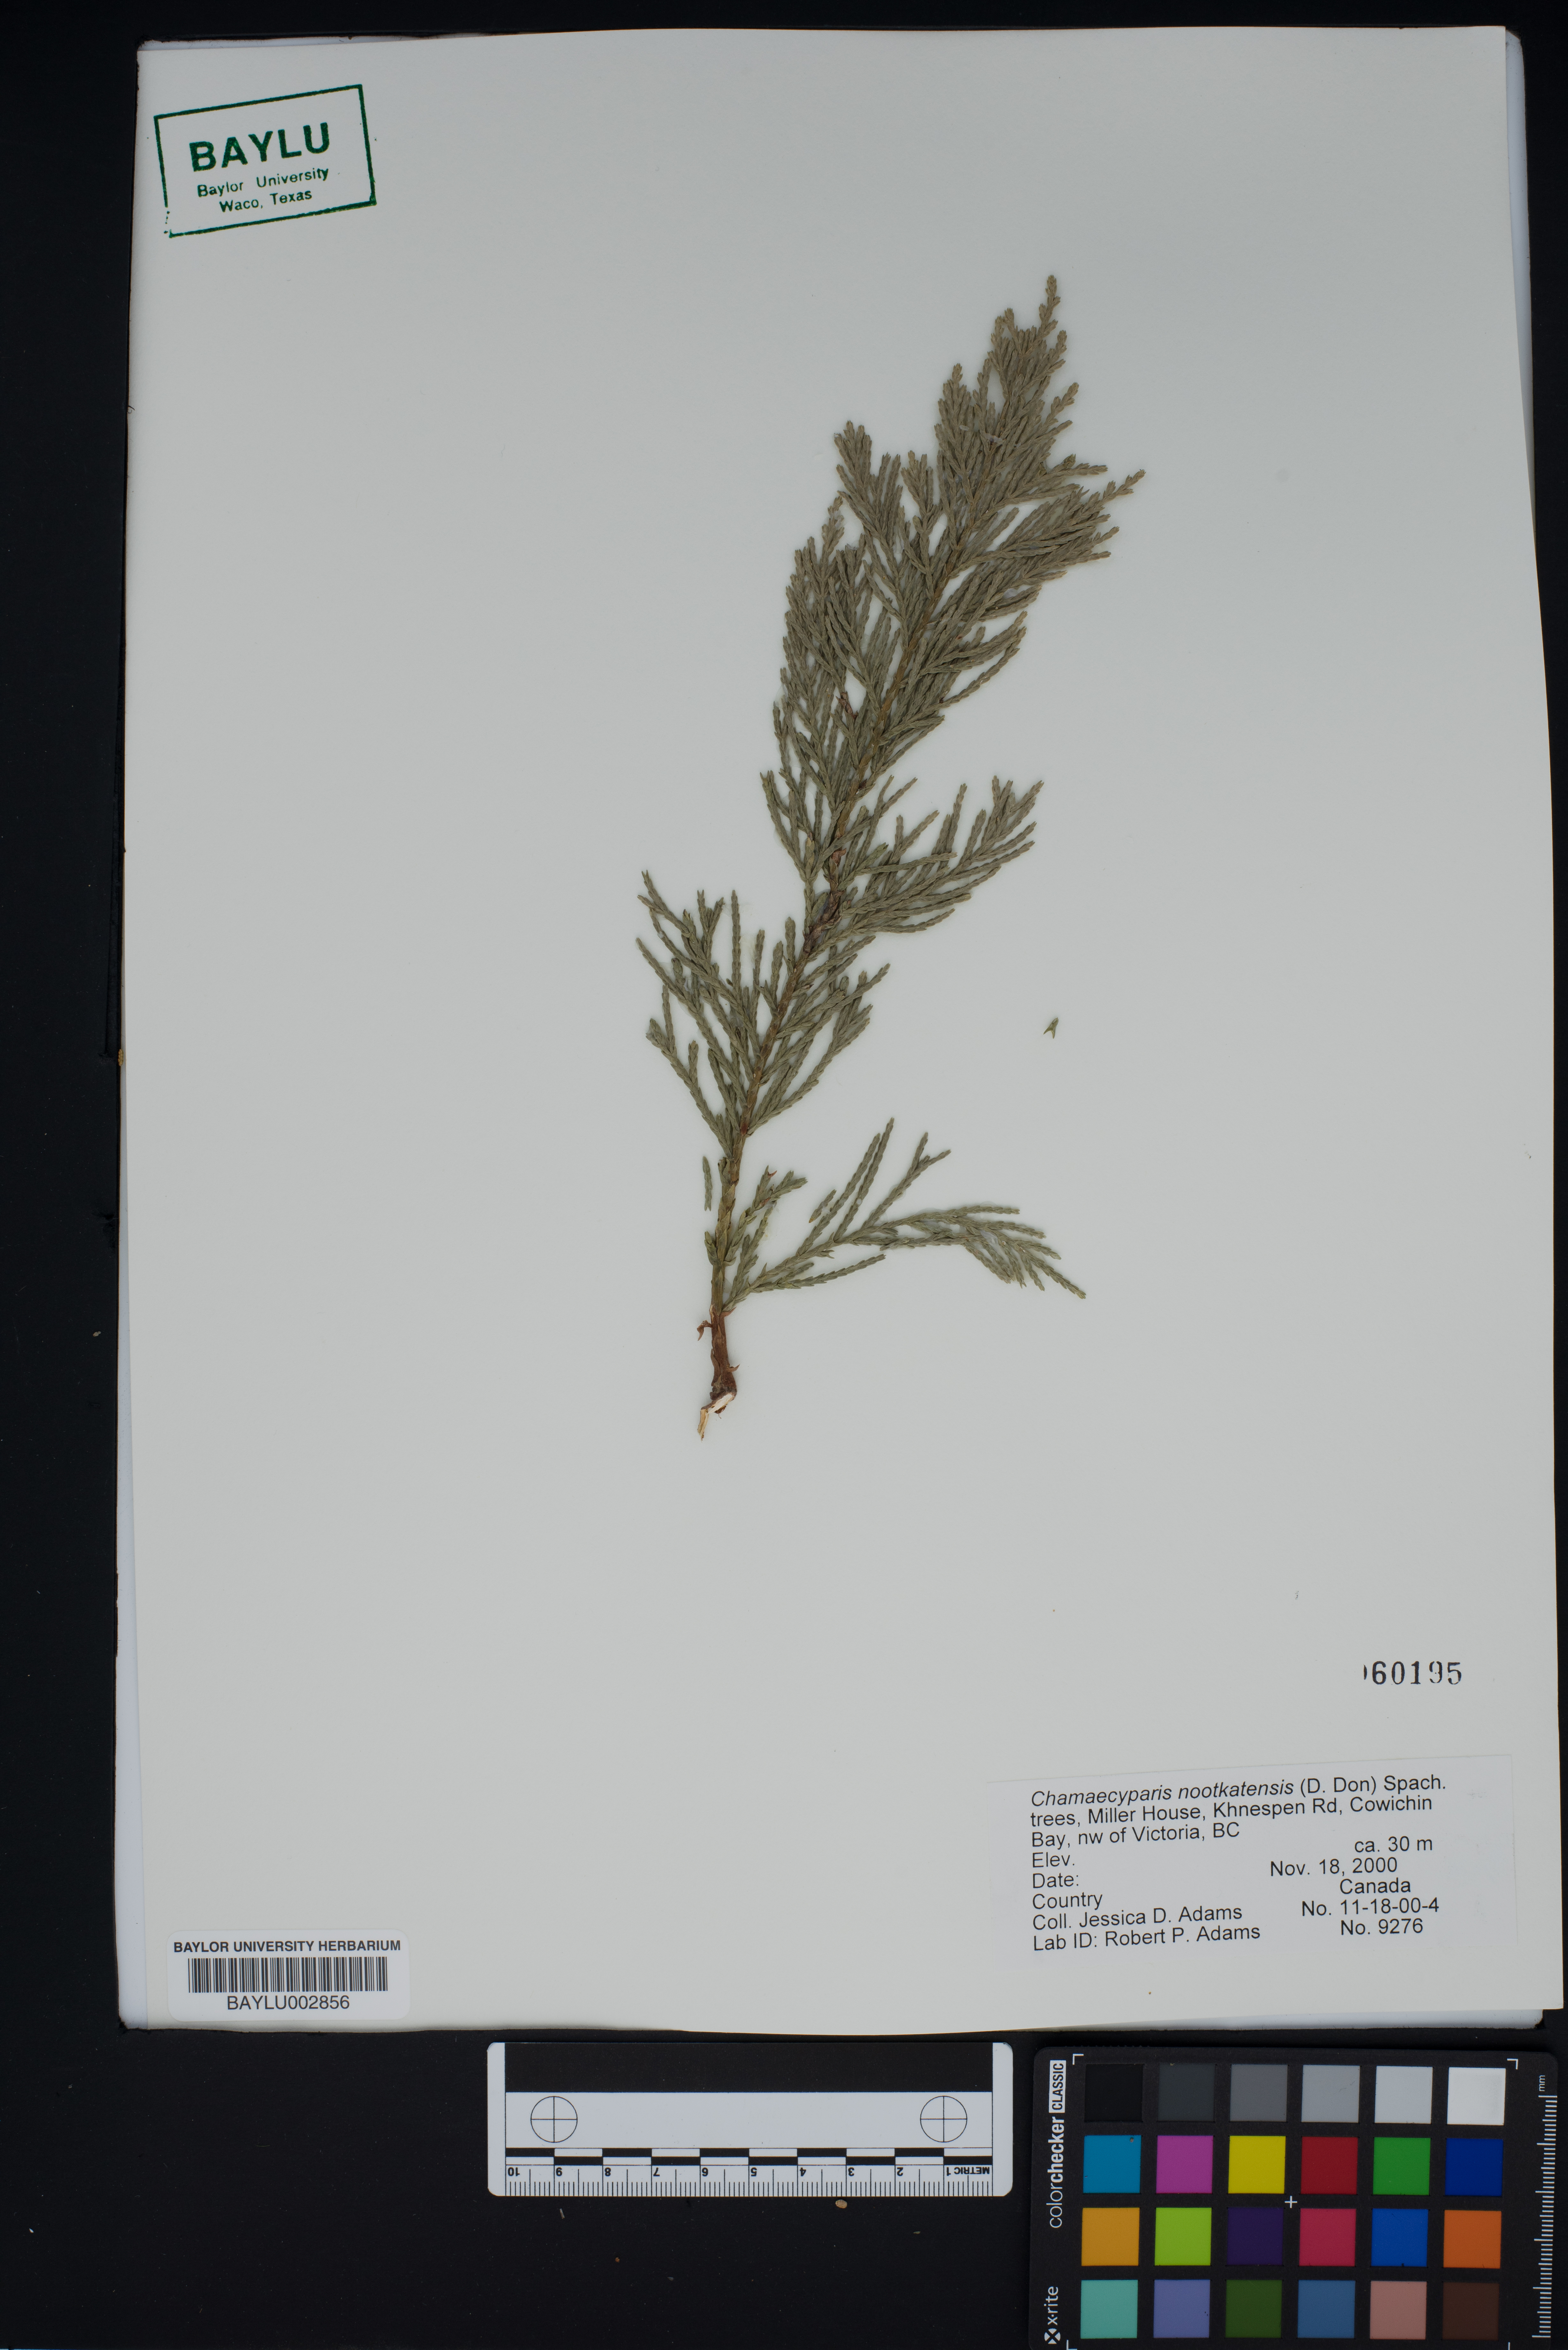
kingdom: Plantae
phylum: Tracheophyta
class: Pinopsida
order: Pinales
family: Cupressaceae
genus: Xanthocyparis
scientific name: Xanthocyparis nootkatensis
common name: Nootka cypress
